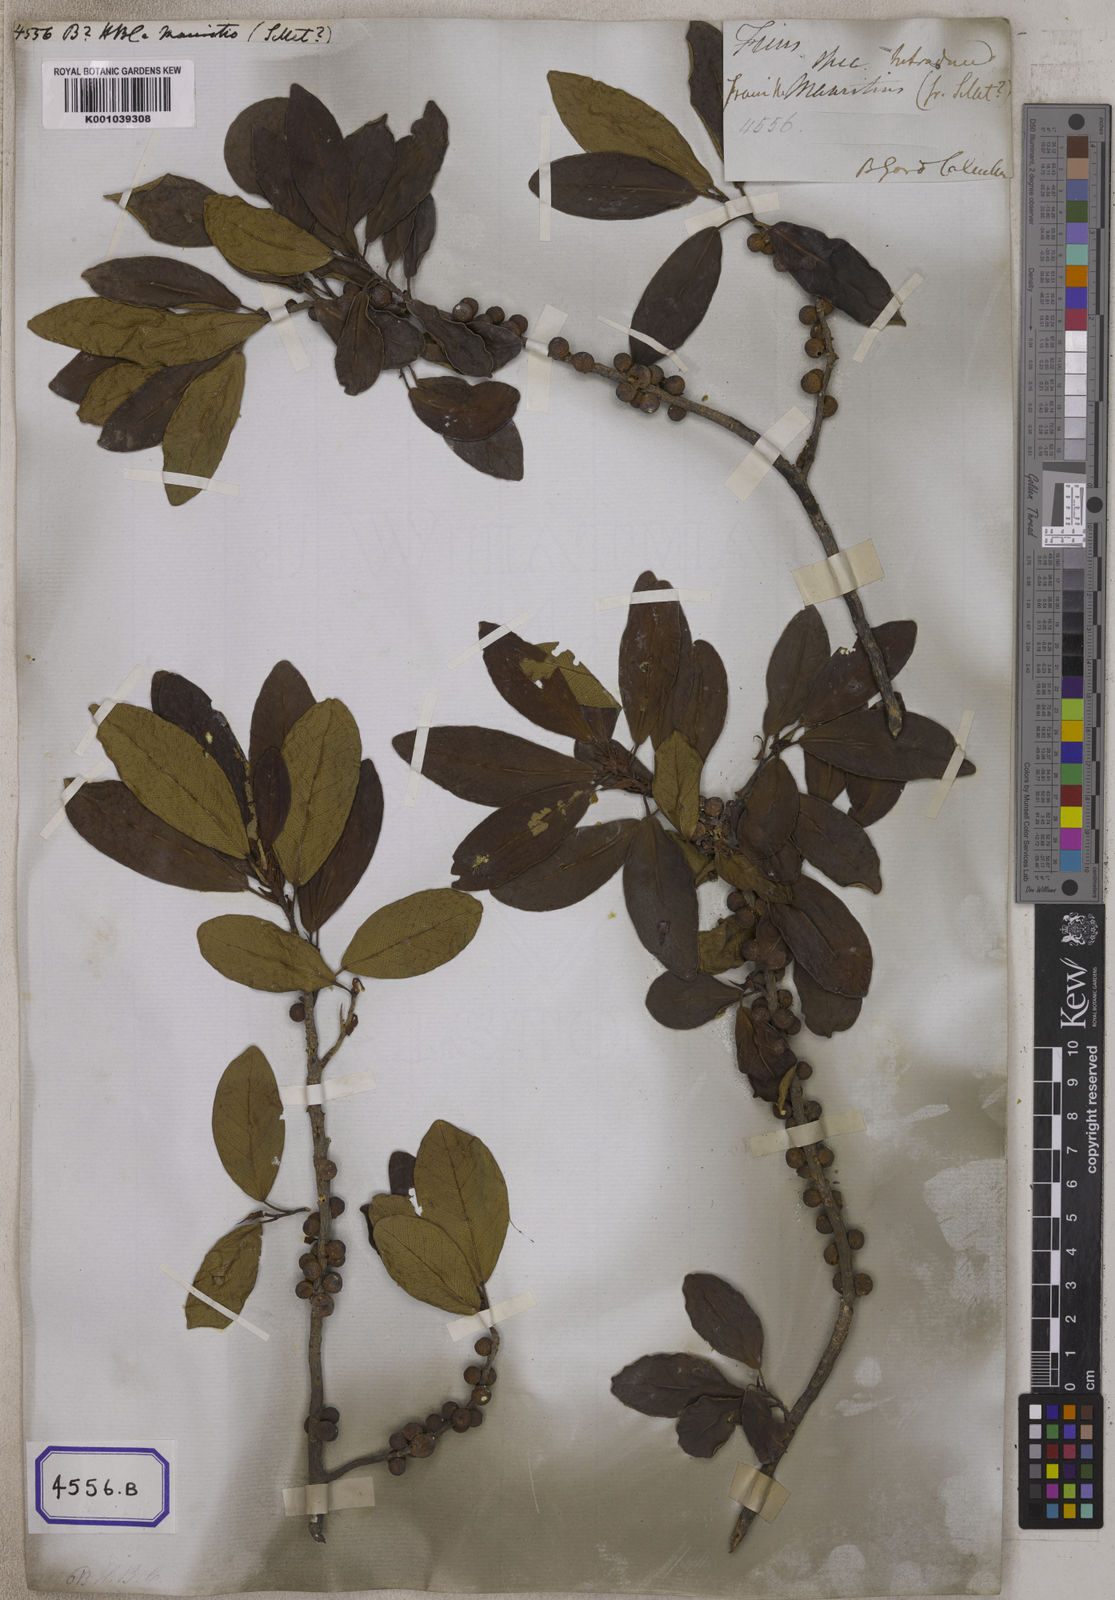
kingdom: Plantae
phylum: Tracheophyta
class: Magnoliopsida
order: Rosales
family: Moraceae
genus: Ficus
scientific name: Ficus
